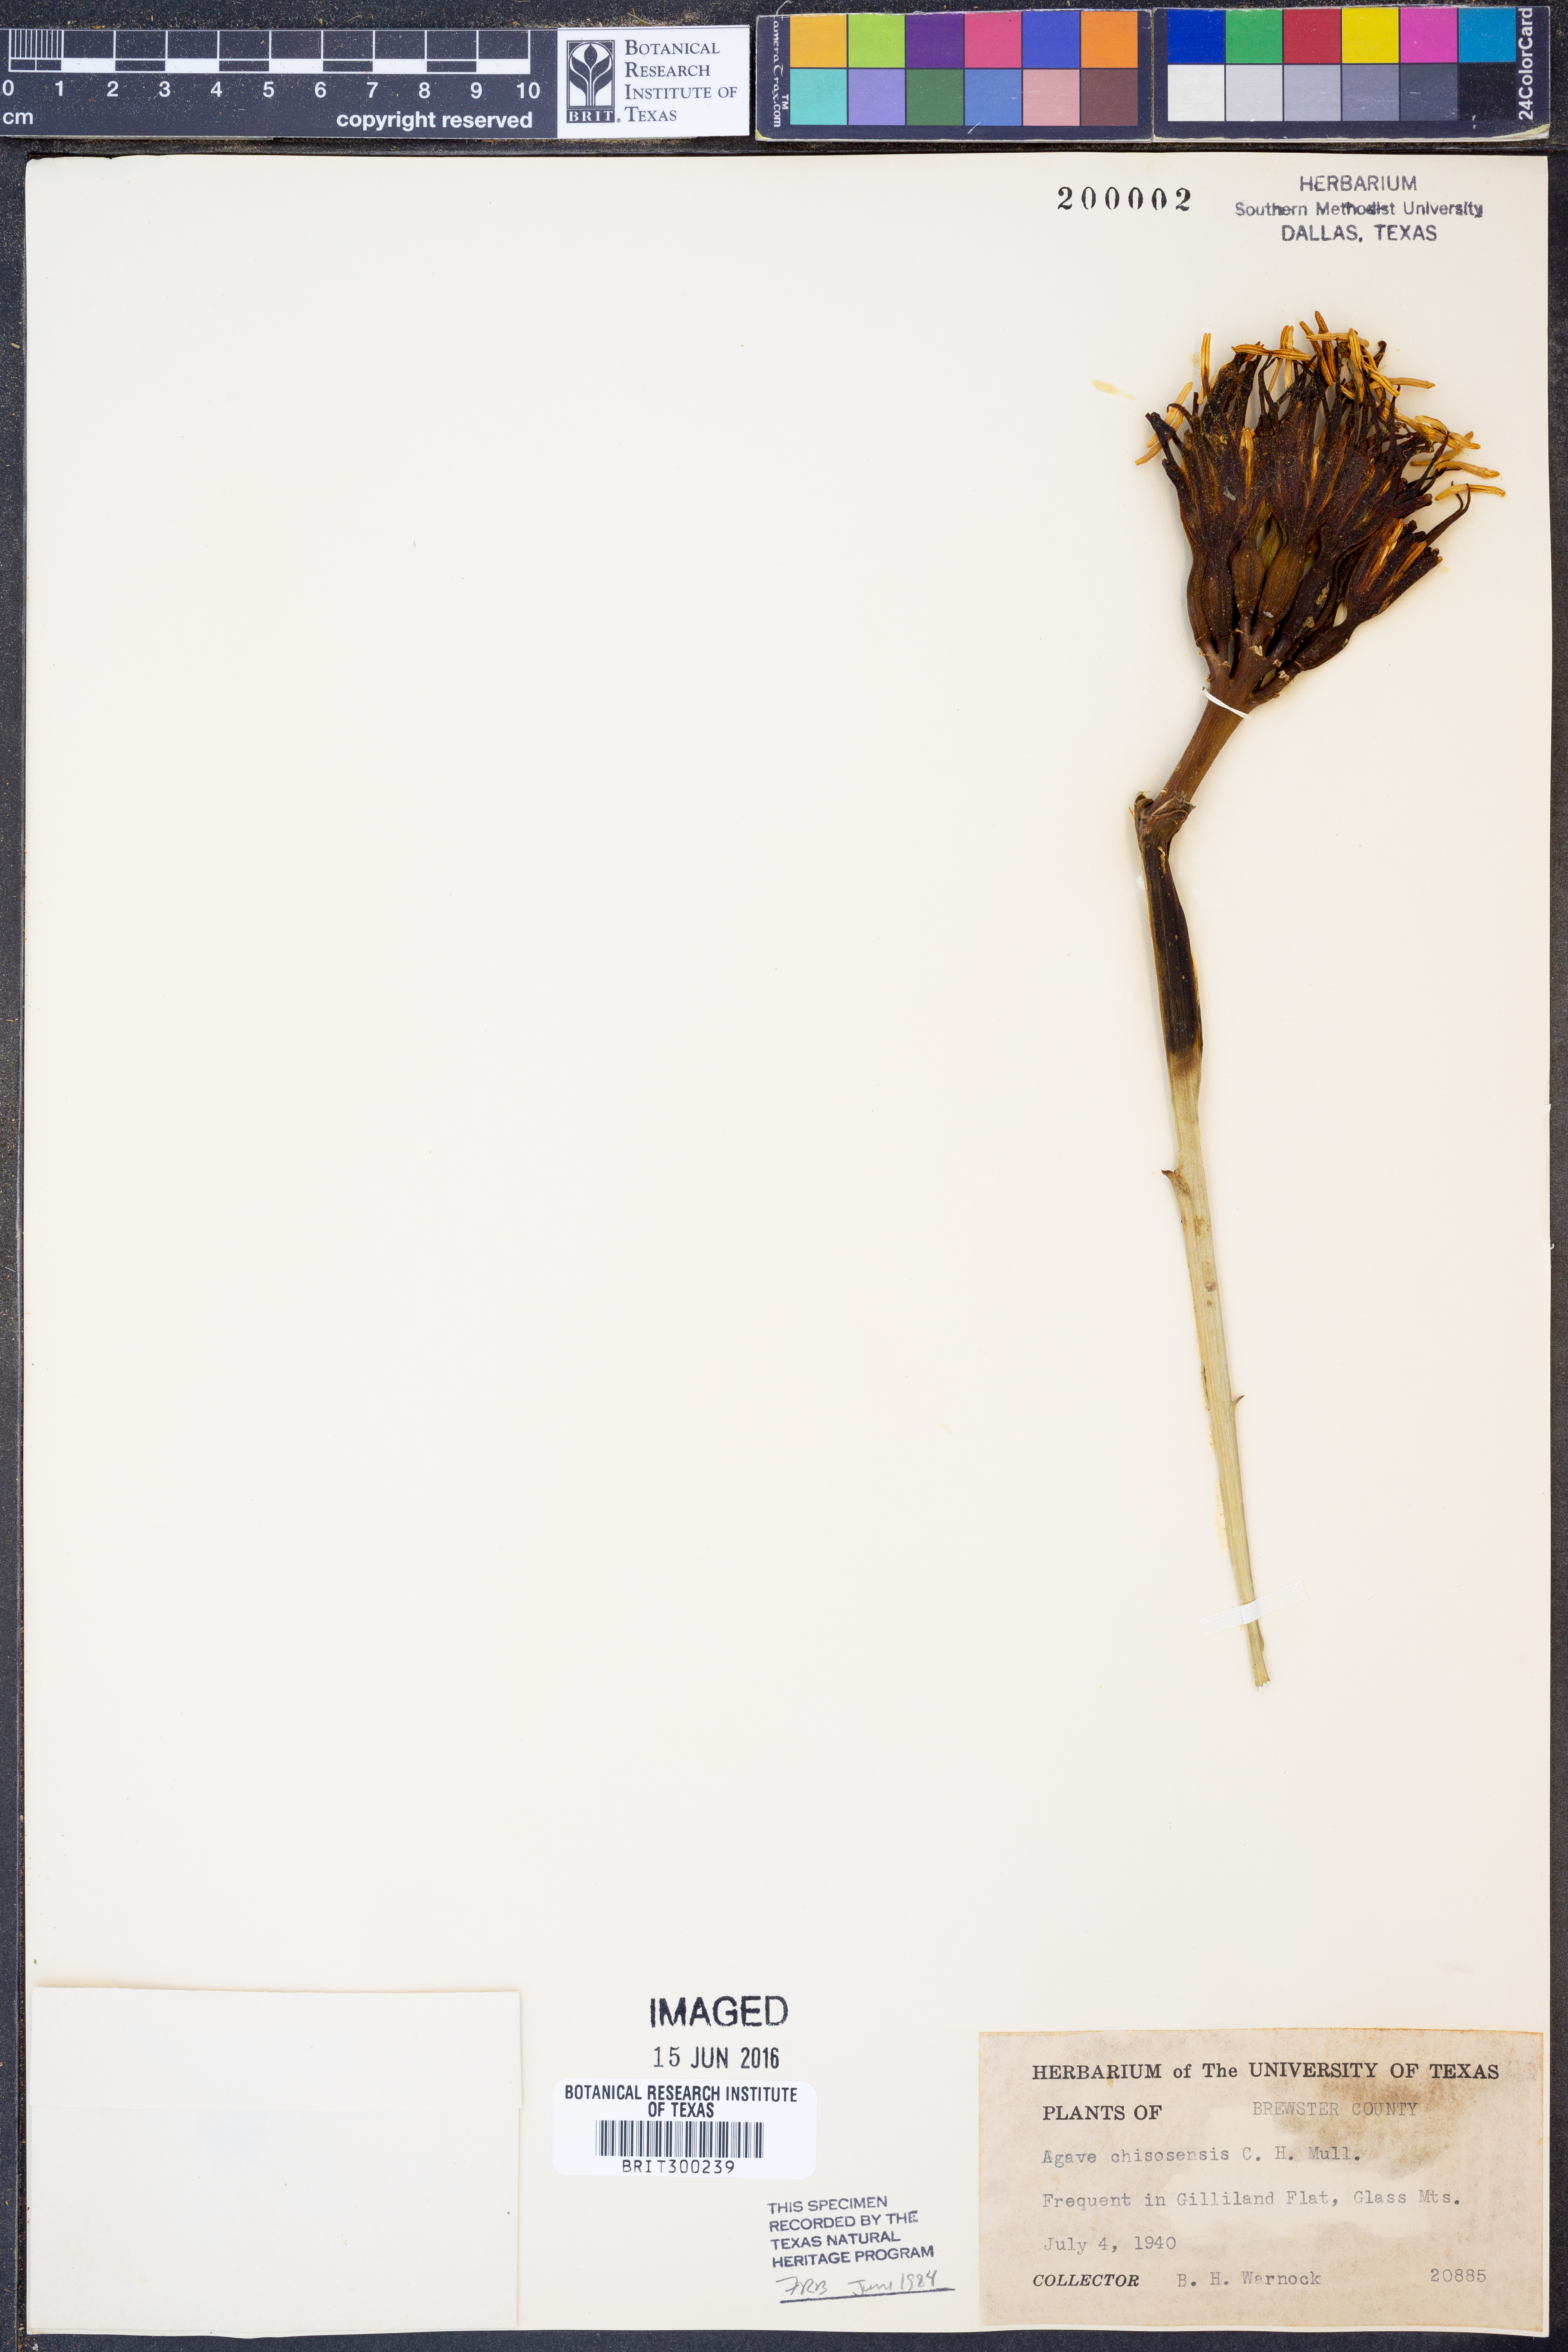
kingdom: Plantae
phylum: Tracheophyta
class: Liliopsida
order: Asparagales
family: Asparagaceae
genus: Agave
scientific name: Agave glomeruliflora
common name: Chisos agave
